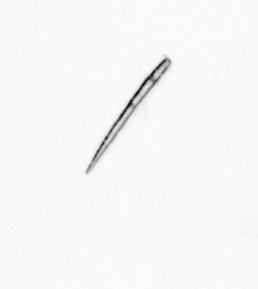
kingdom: Chromista
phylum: Ochrophyta
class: Bacillariophyceae
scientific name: Bacillariophyceae
